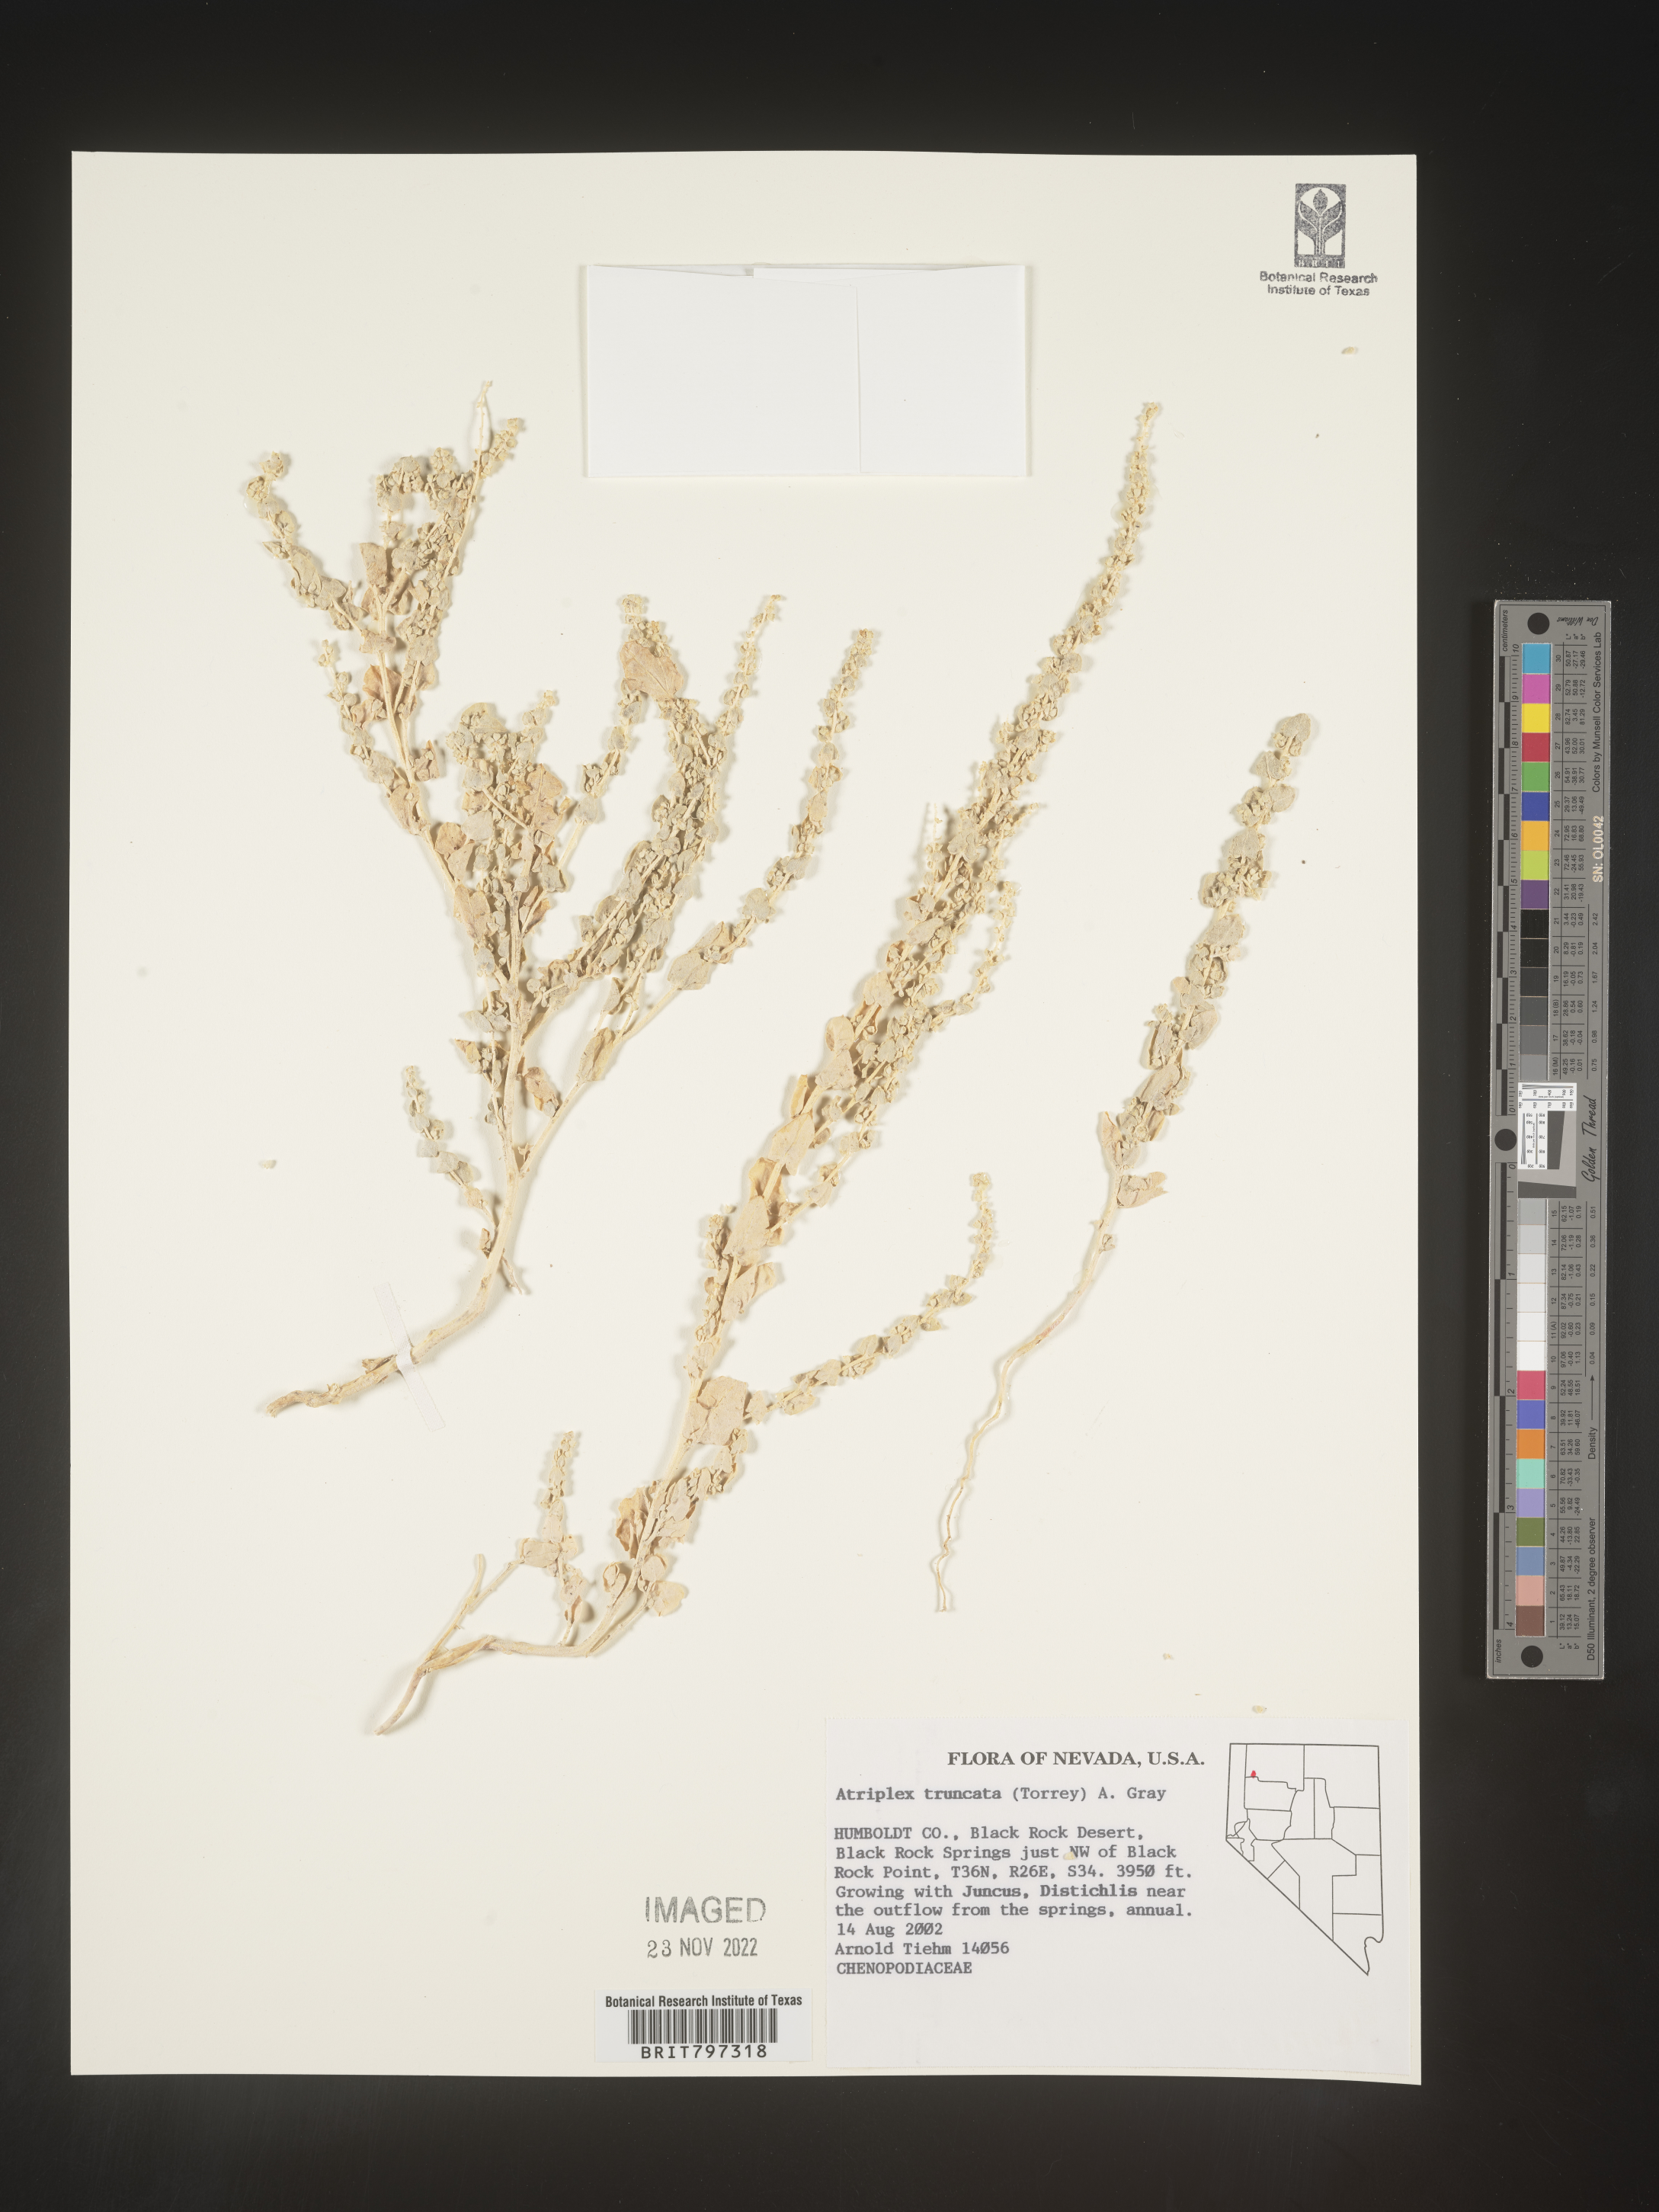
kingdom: Plantae
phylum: Tracheophyta
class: Magnoliopsida
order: Caryophyllales
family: Amaranthaceae
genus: Atriplex
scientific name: Atriplex
